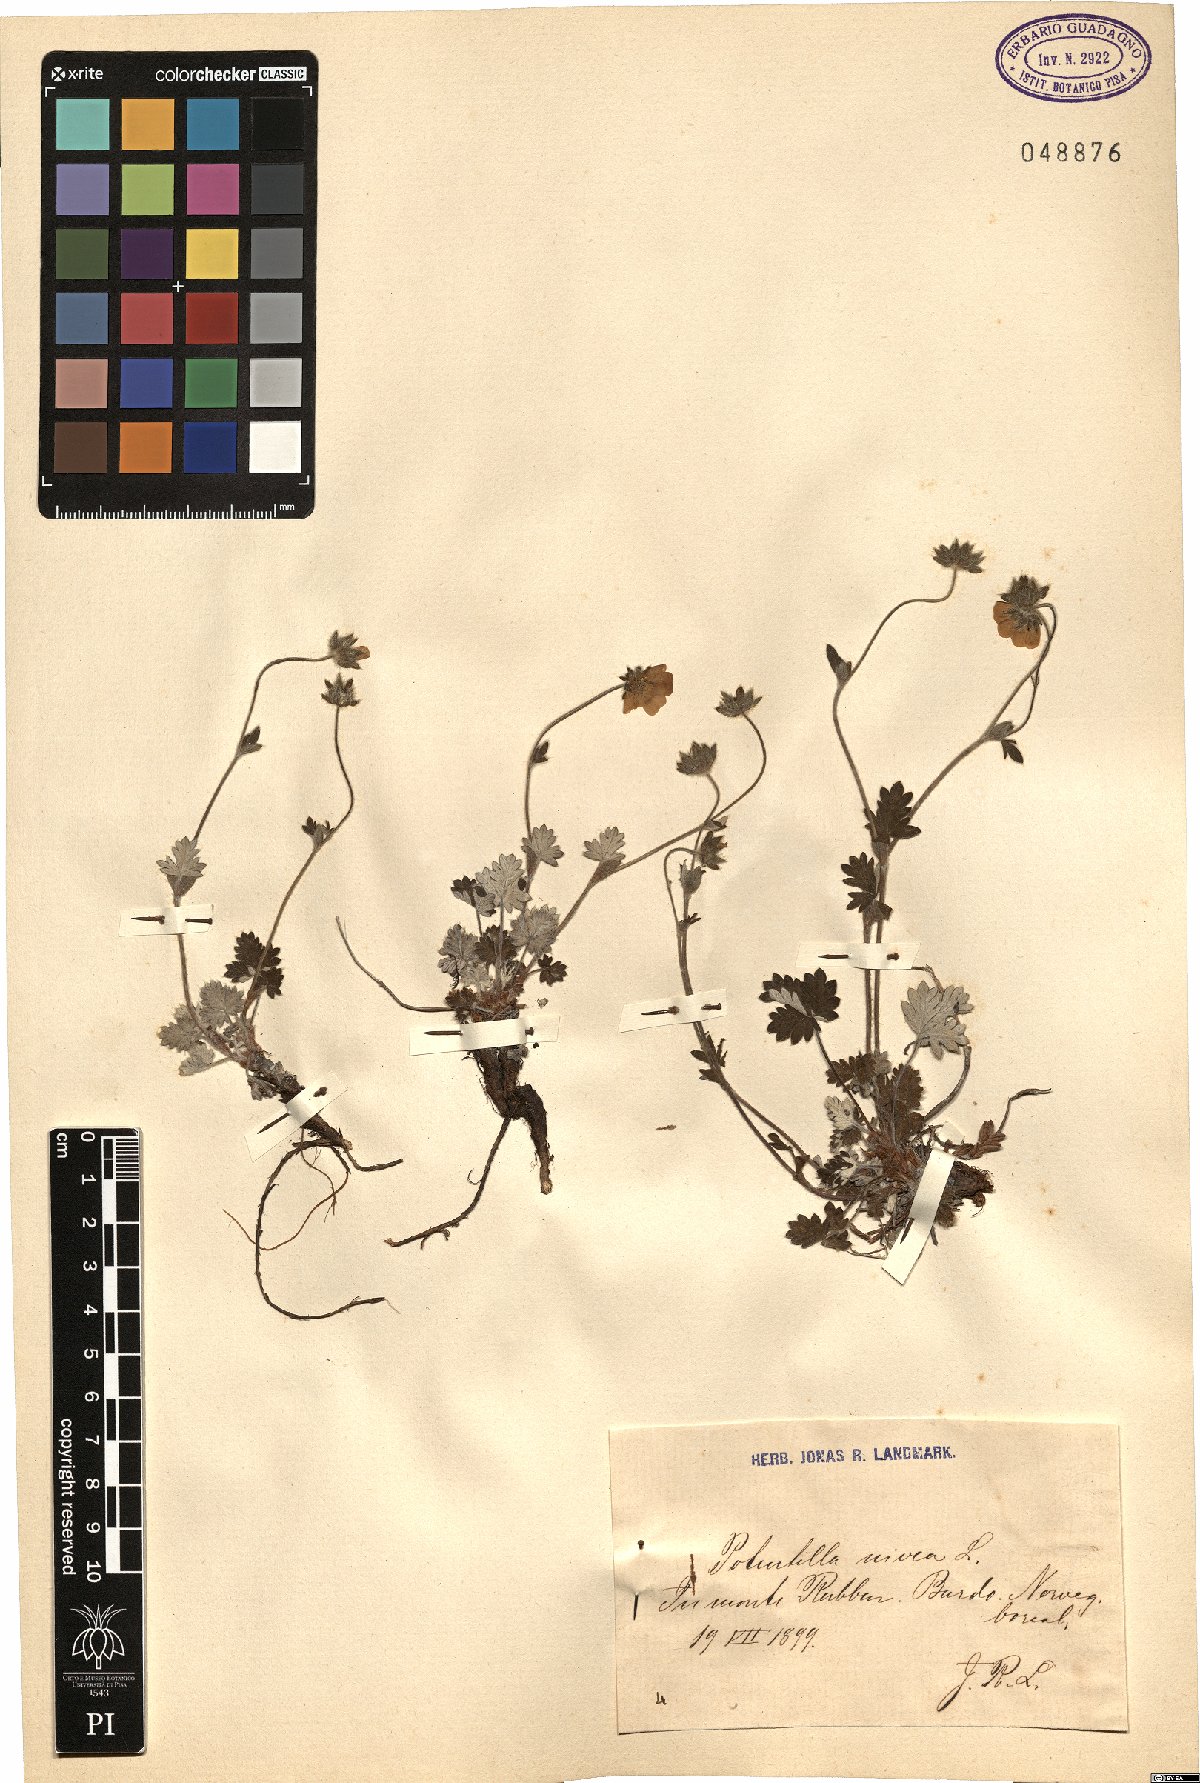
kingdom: Plantae
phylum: Tracheophyta
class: Magnoliopsida
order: Rosales
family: Rosaceae
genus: Potentilla
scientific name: Potentilla nivea
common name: Snow cinquefoil
